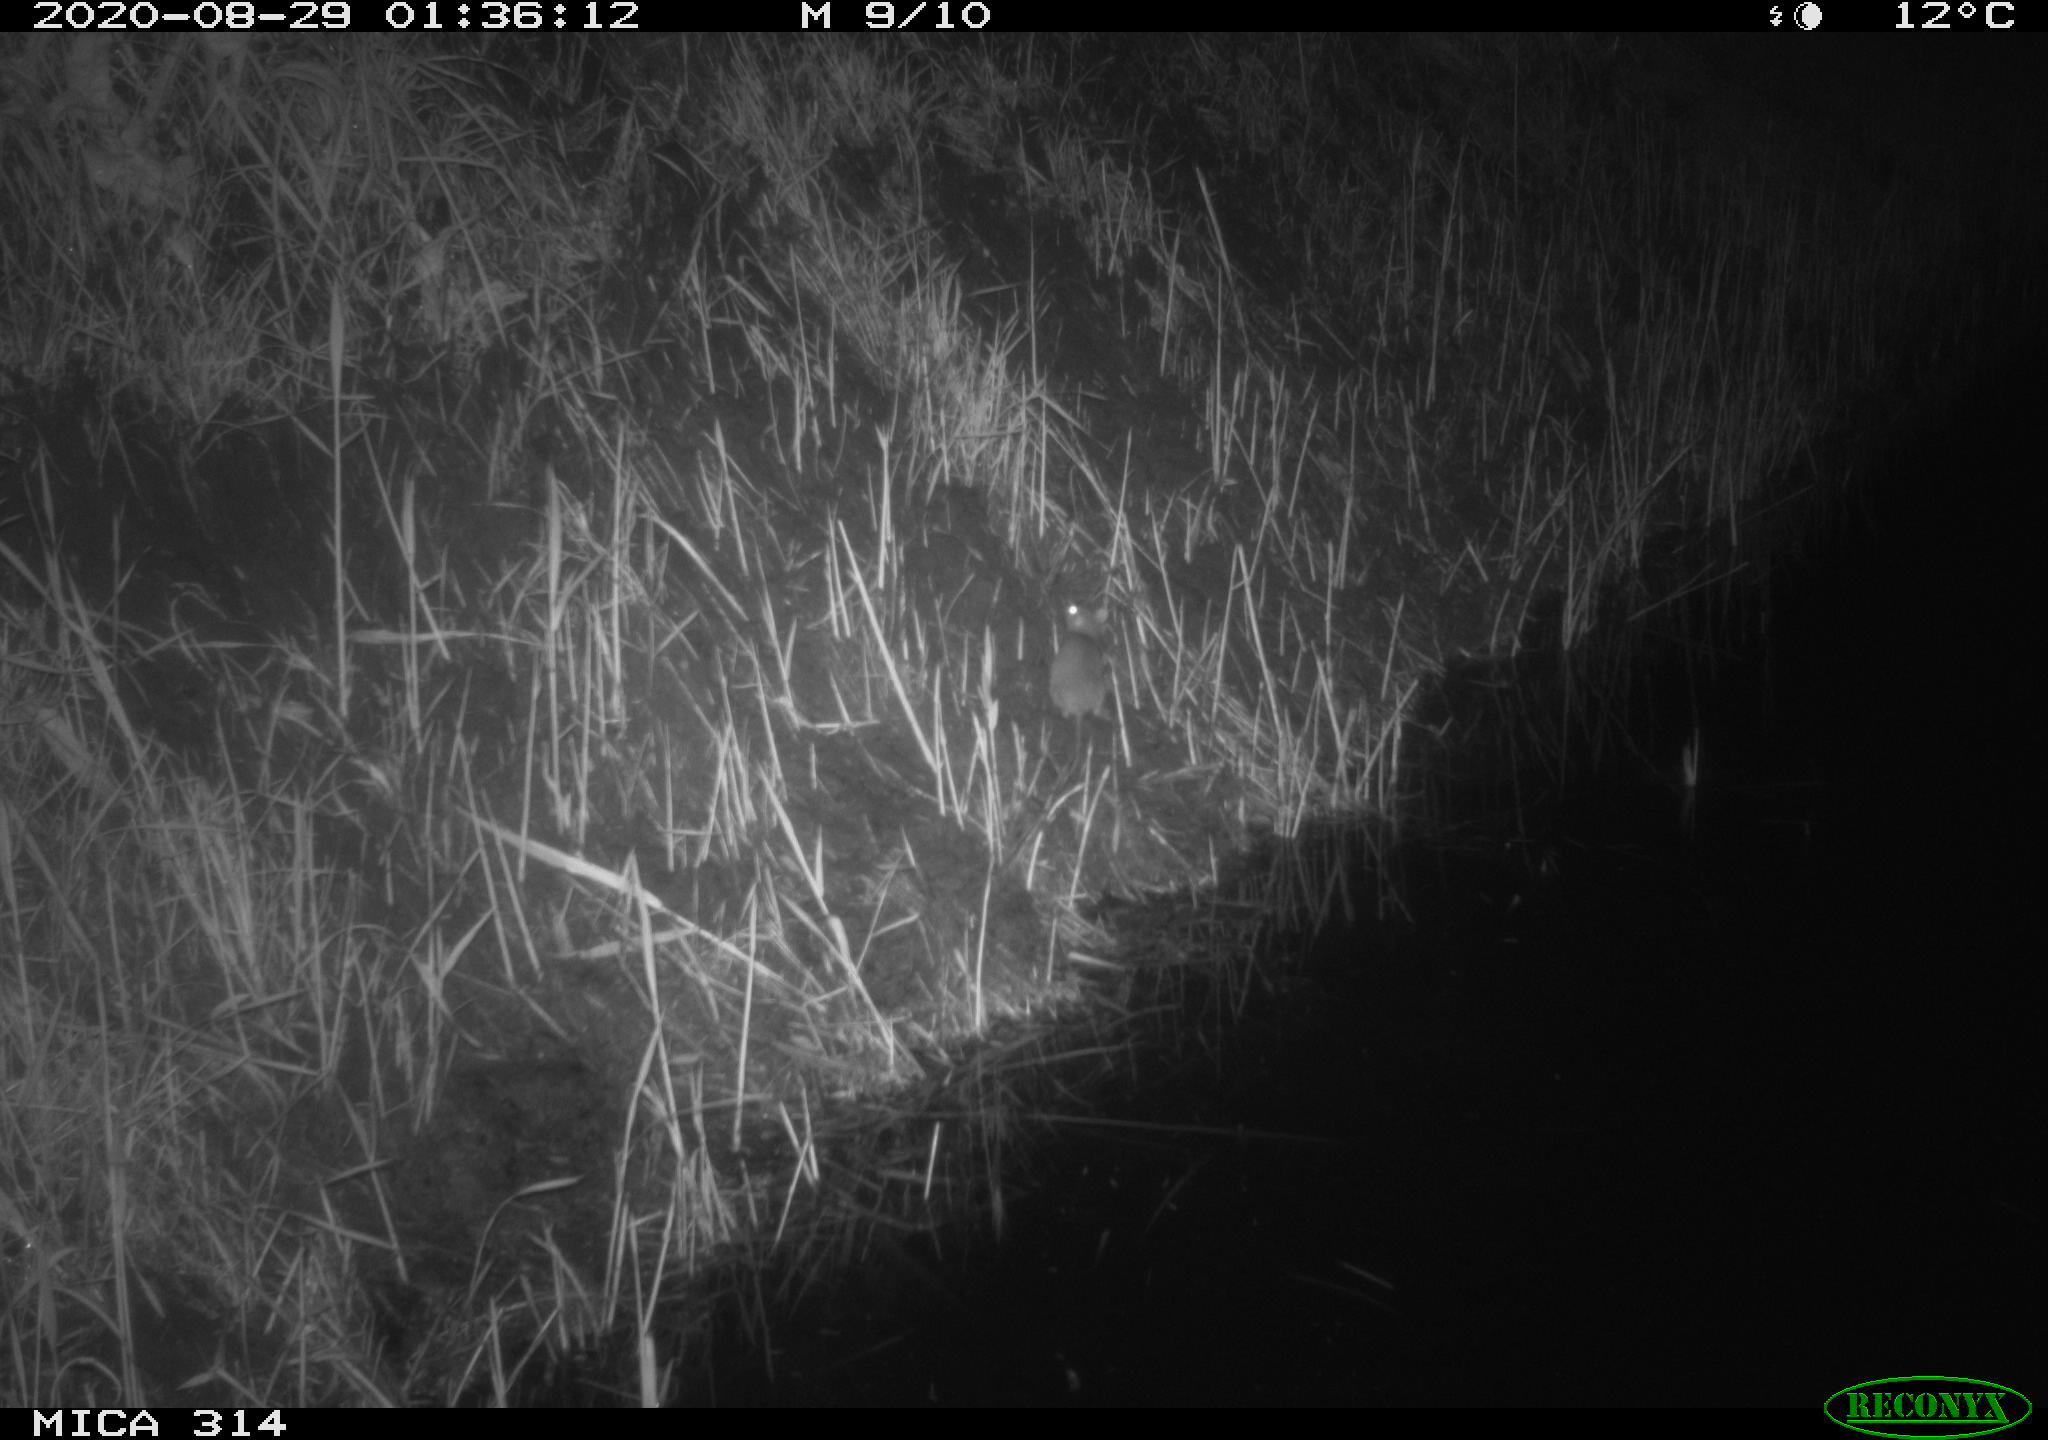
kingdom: Animalia
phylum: Chordata
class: Mammalia
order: Rodentia
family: Muridae
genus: Rattus
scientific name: Rattus norvegicus
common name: Brown rat
